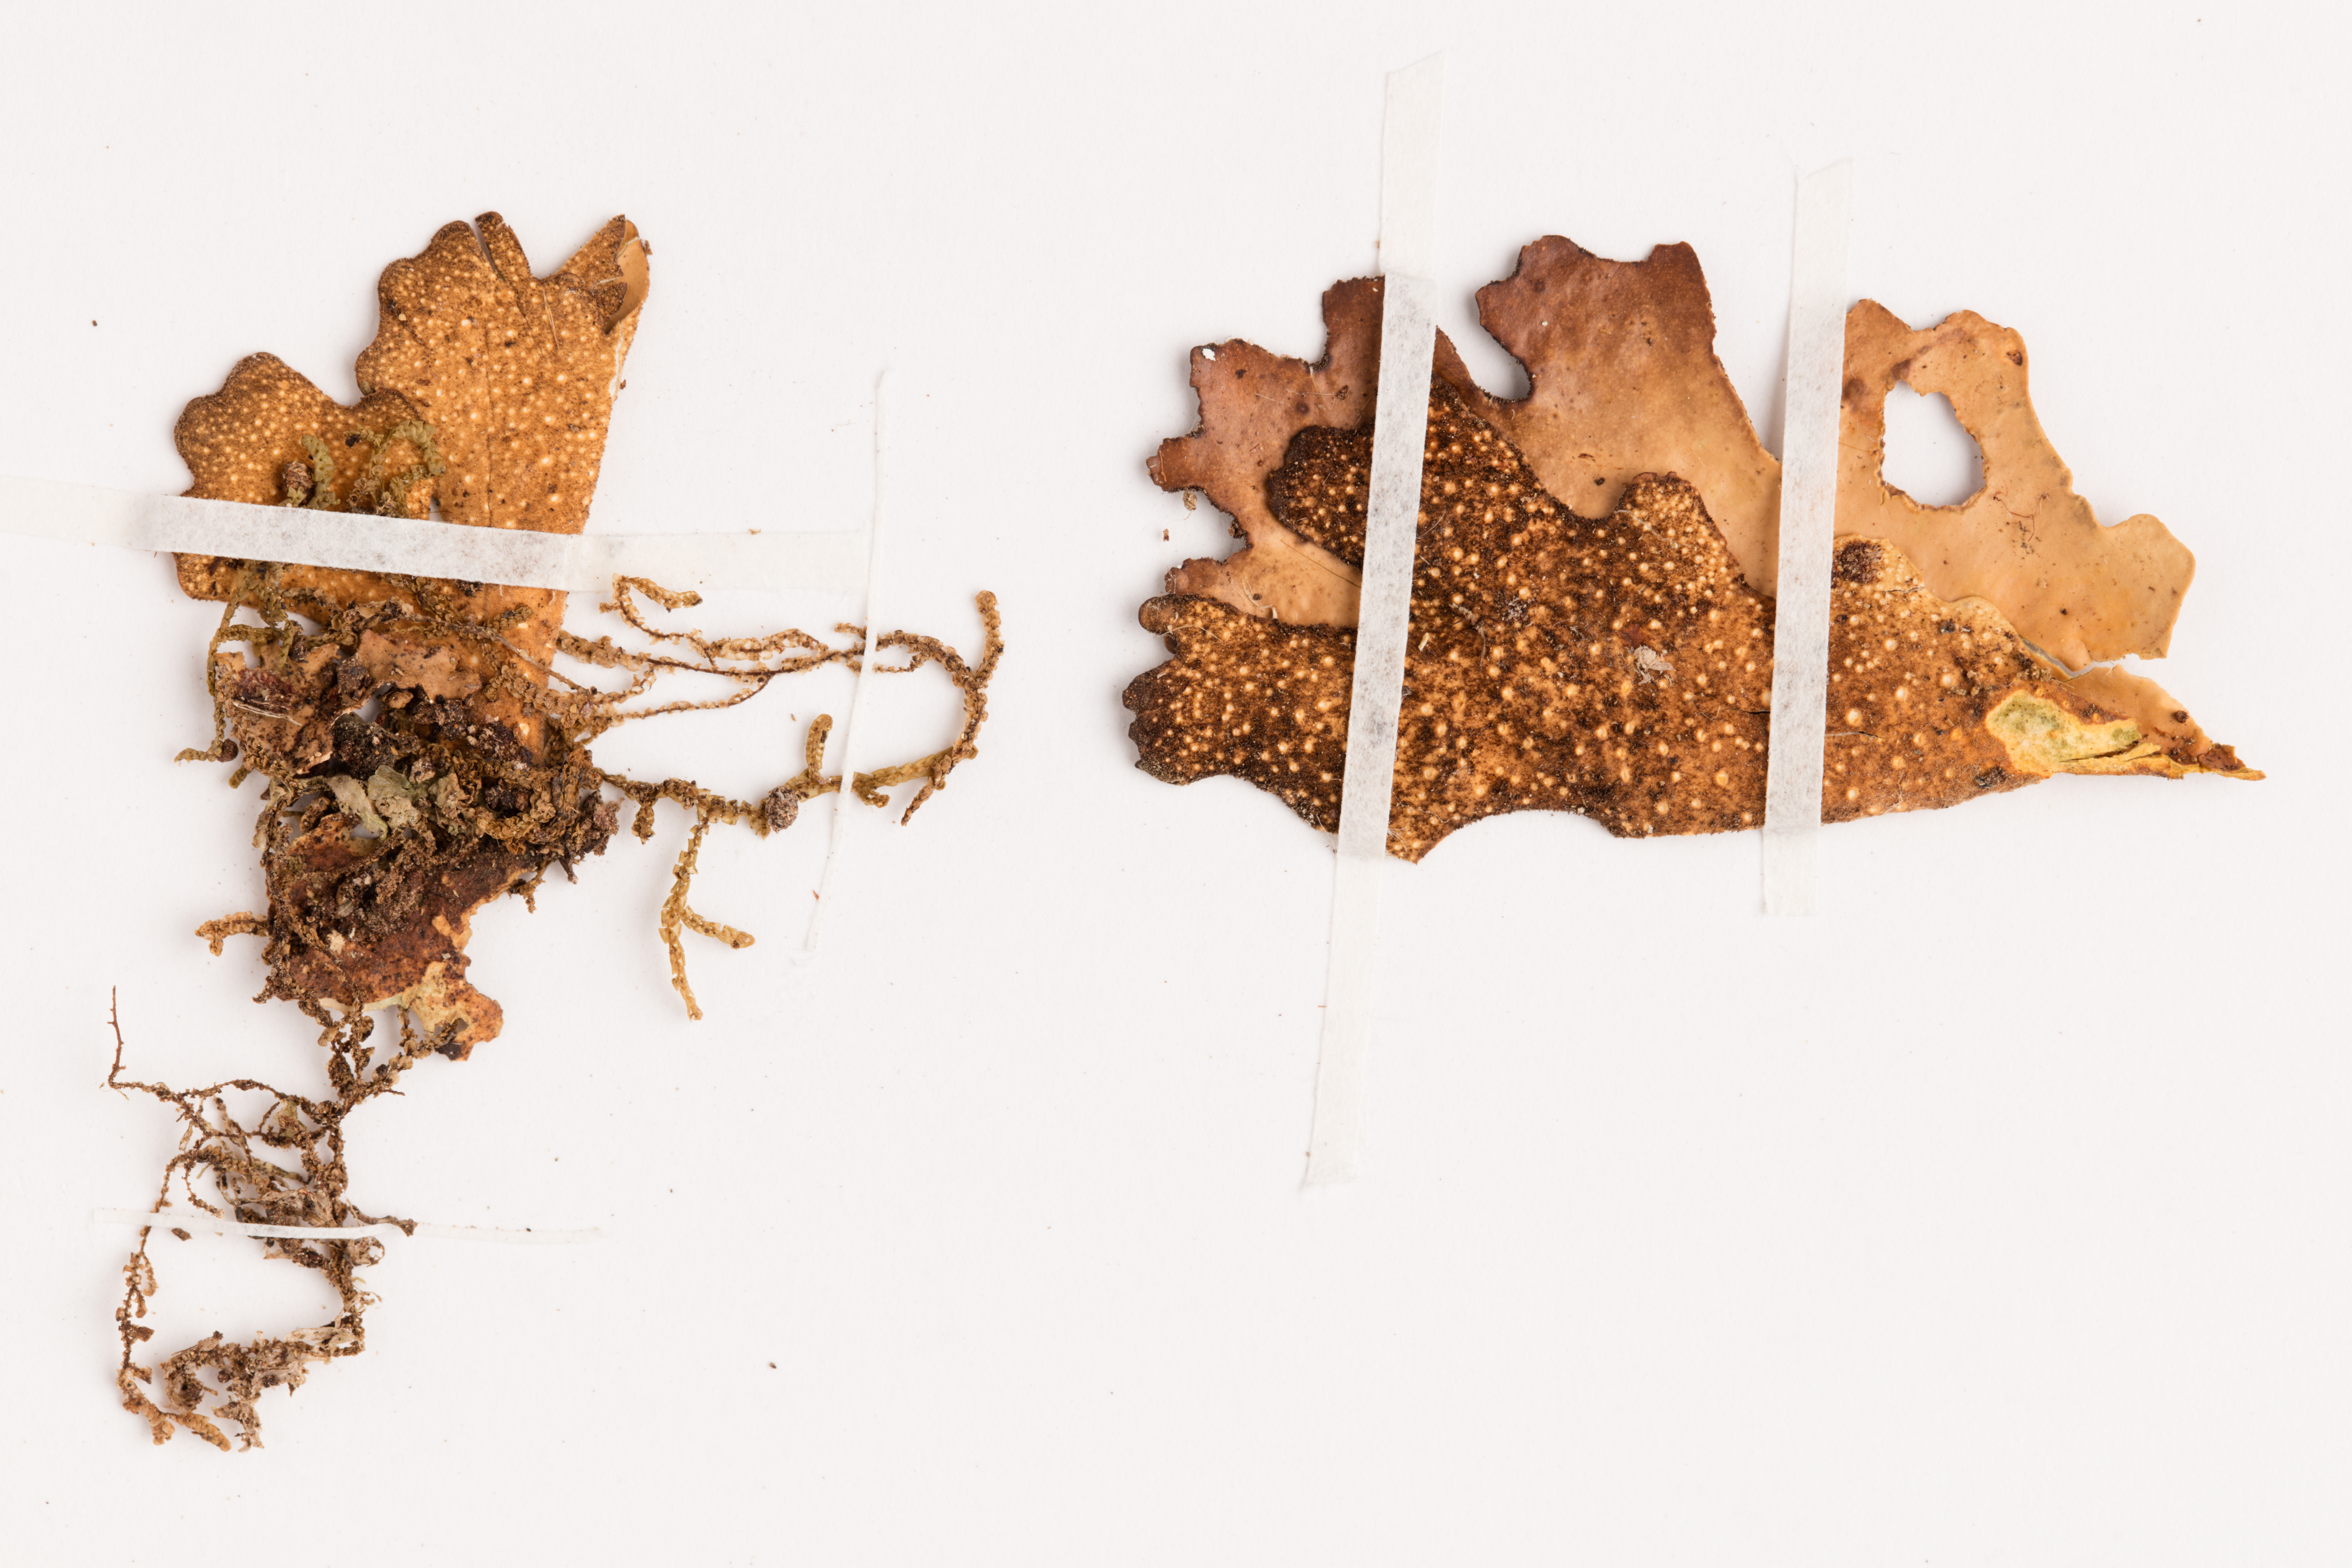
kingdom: Fungi
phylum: Ascomycota
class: Lecanoromycetes
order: Peltigerales
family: Lobariaceae
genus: Sticta
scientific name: Sticta latifrons
